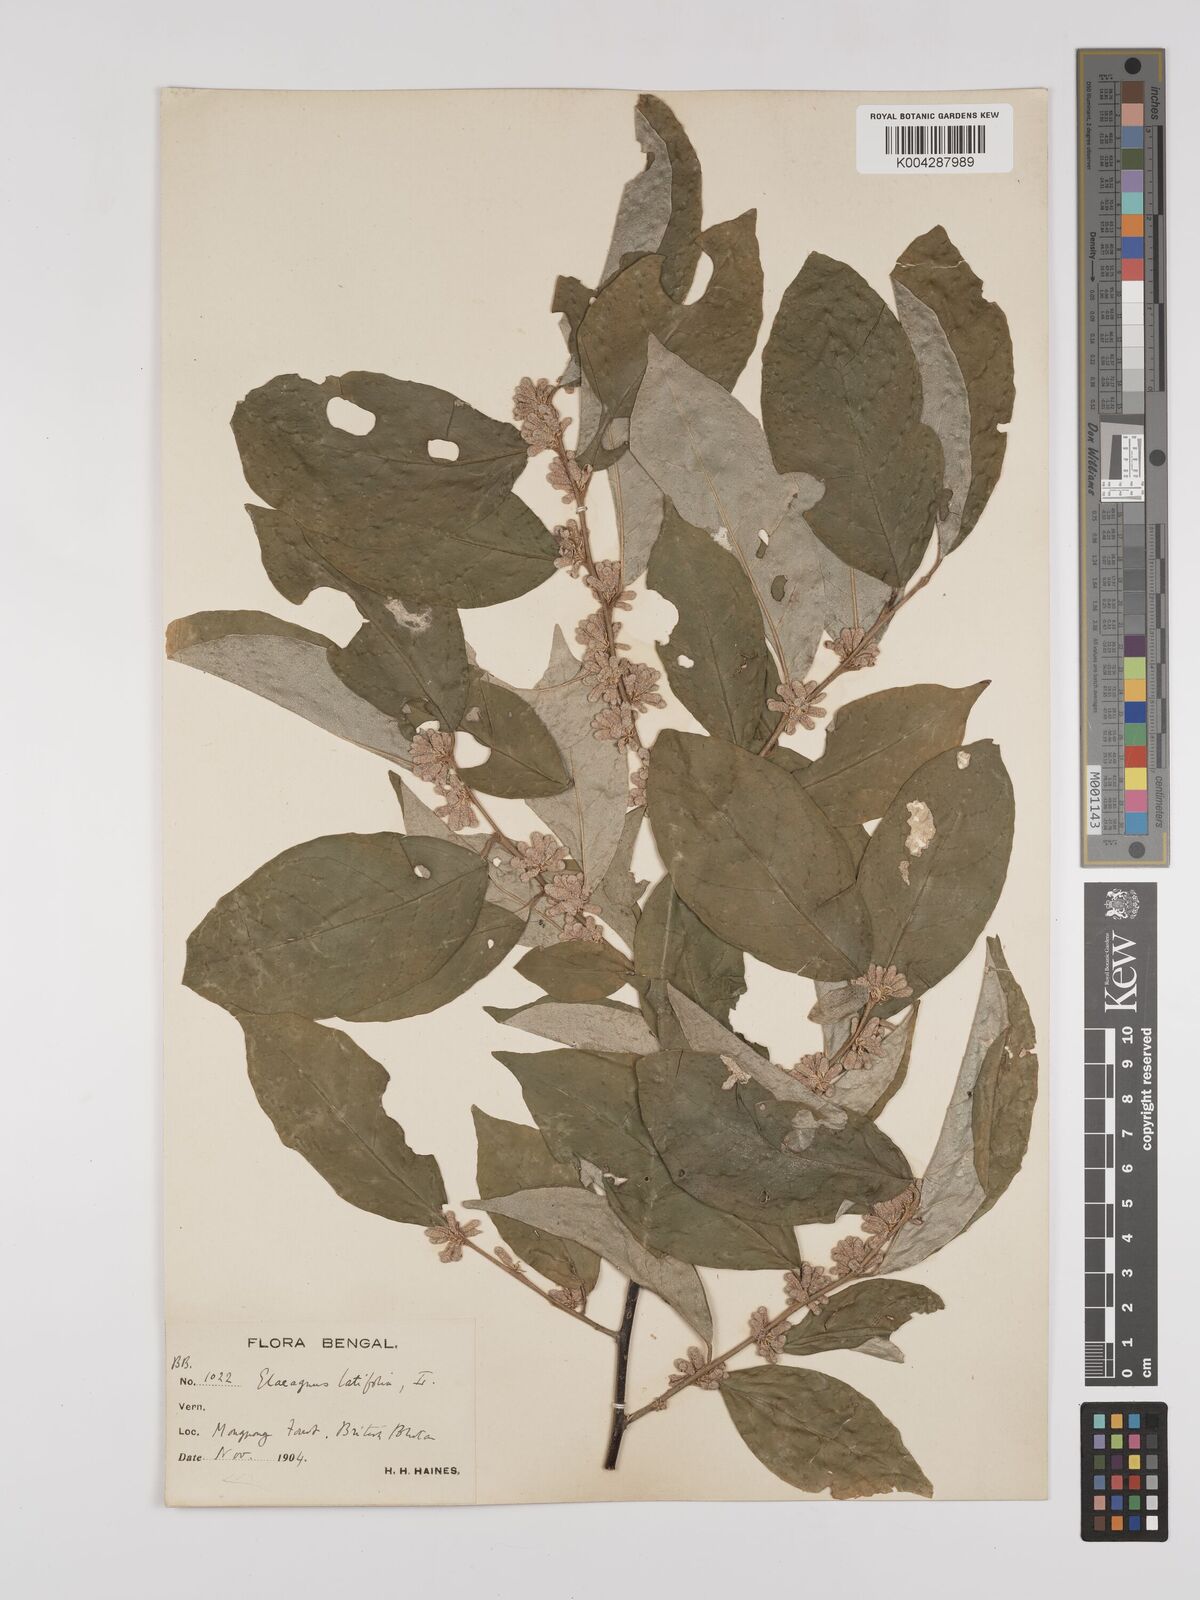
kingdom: Plantae
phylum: Tracheophyta
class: Magnoliopsida
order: Rosales
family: Elaeagnaceae
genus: Elaeagnus
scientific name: Elaeagnus latifolia
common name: Oleaster
